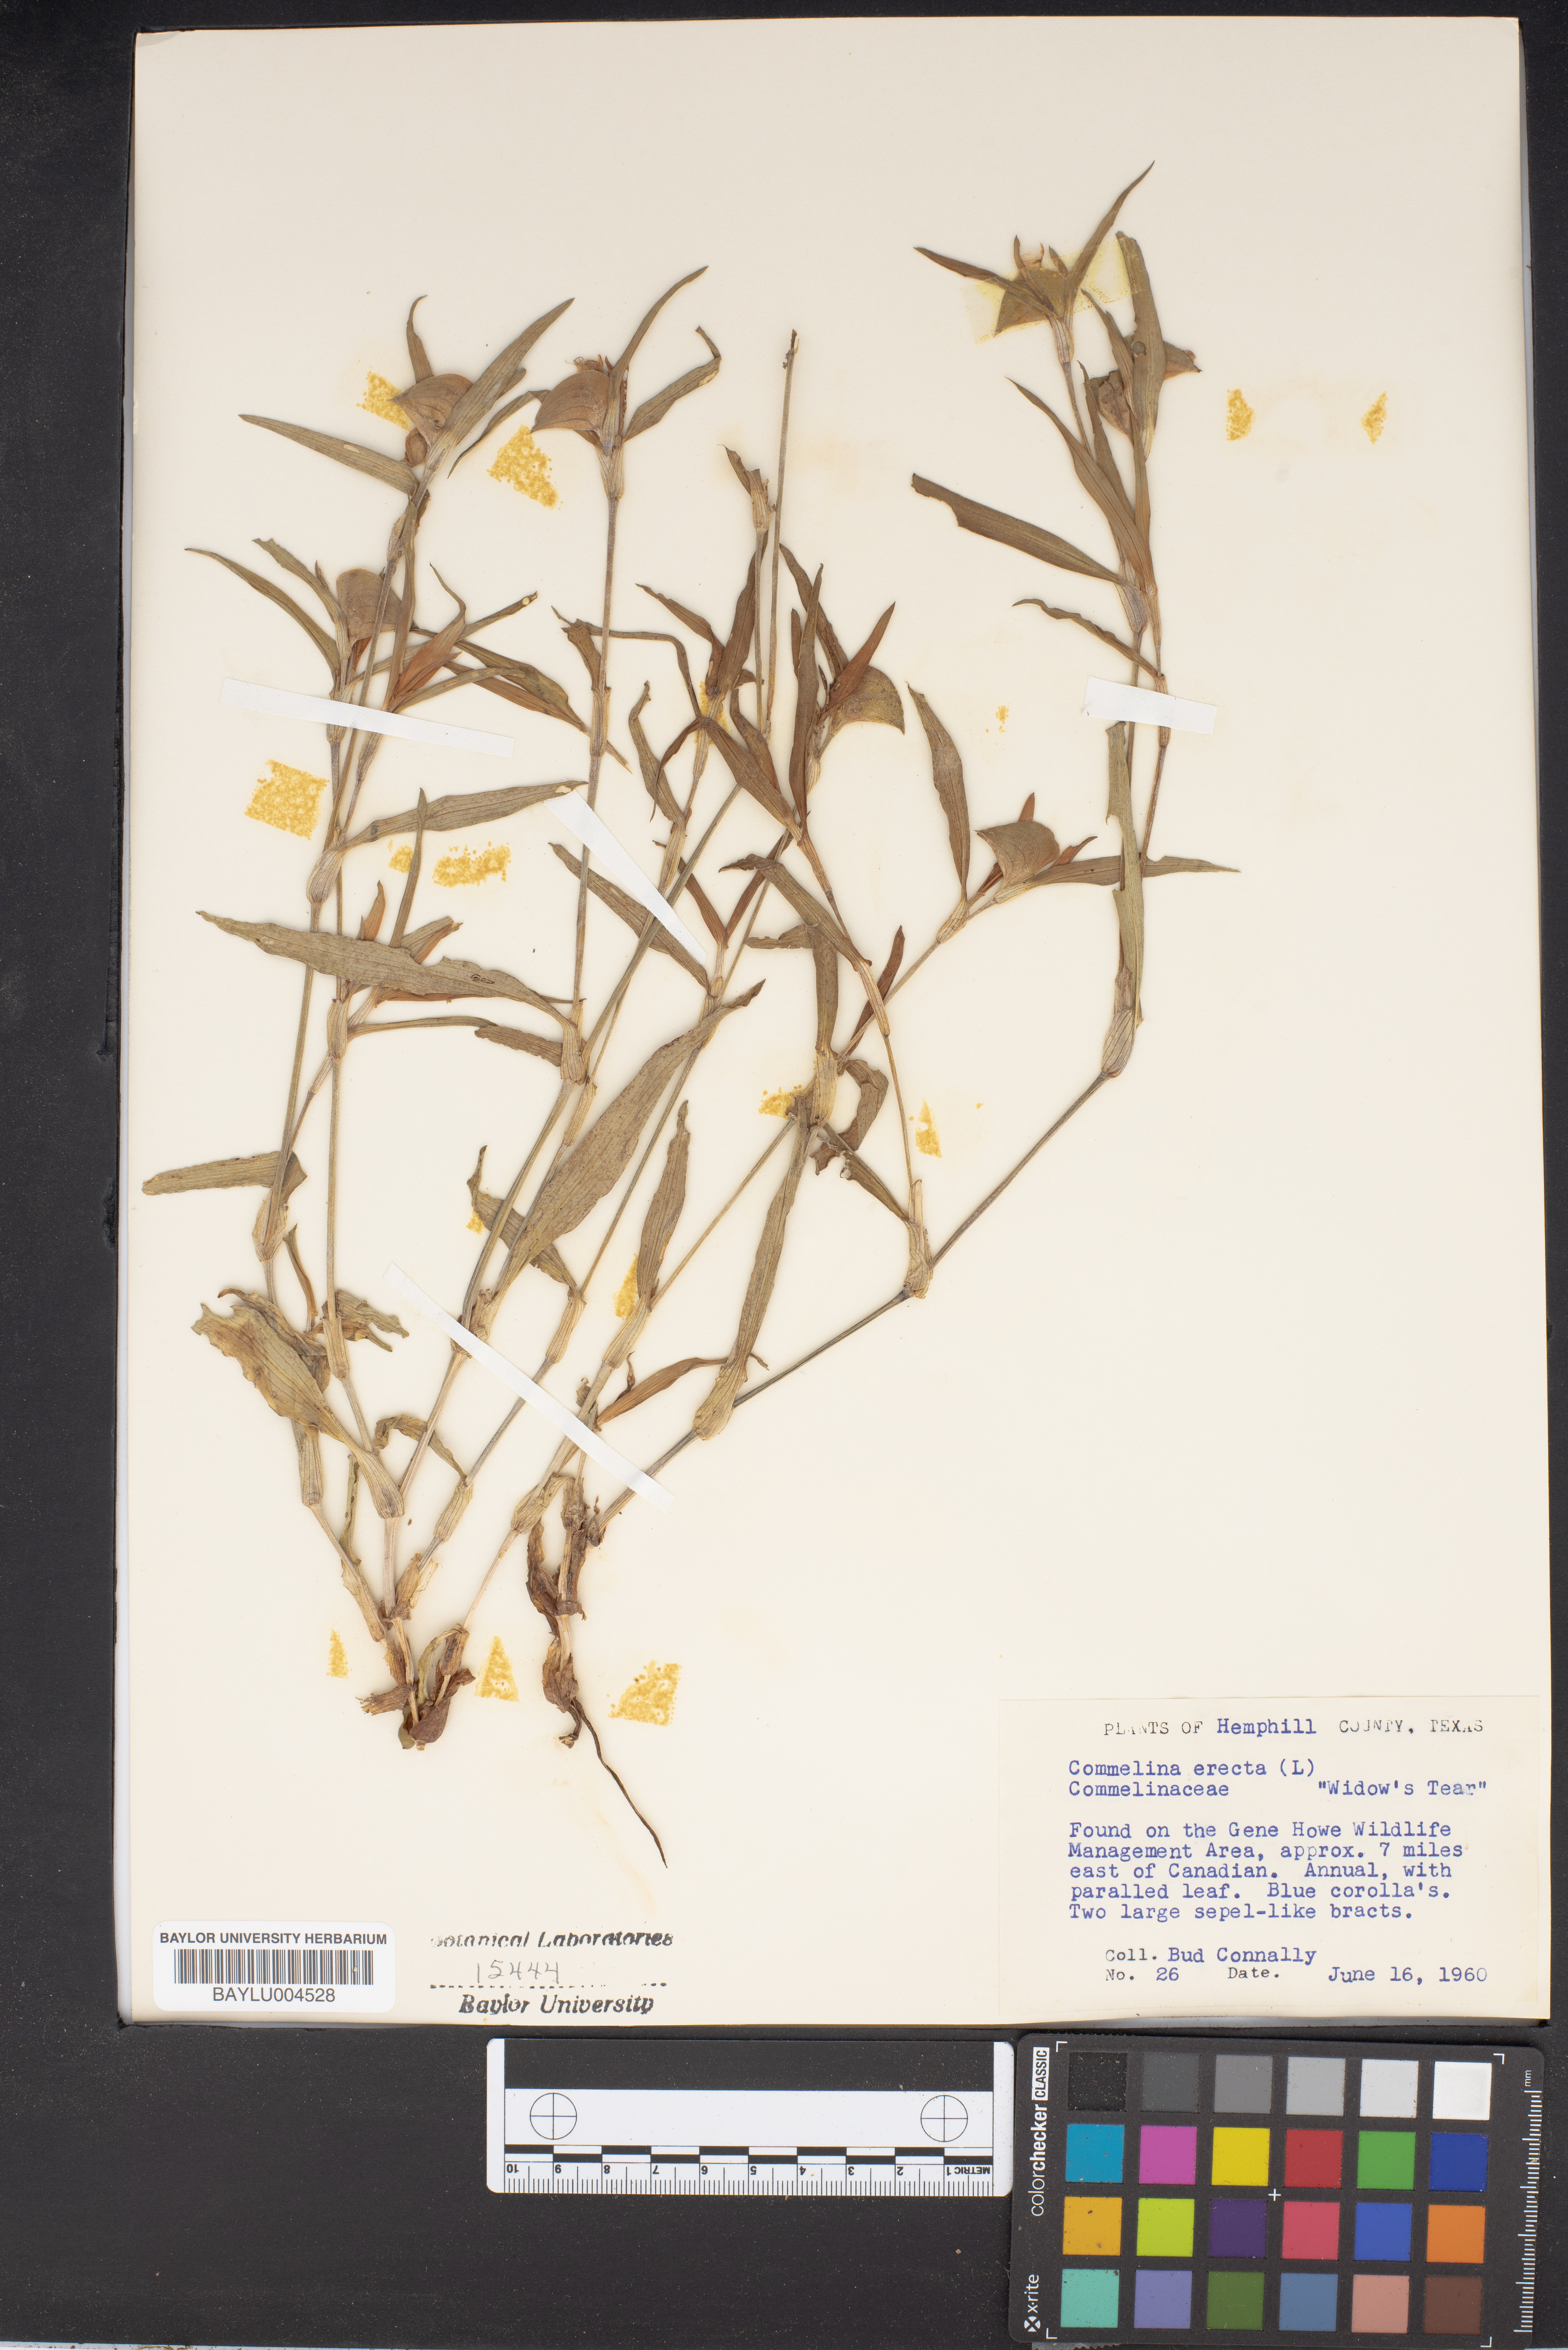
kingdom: Plantae
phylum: Tracheophyta
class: Liliopsida
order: Commelinales
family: Commelinaceae
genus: Commelina
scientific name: Commelina erecta
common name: Blousel blommetjie
